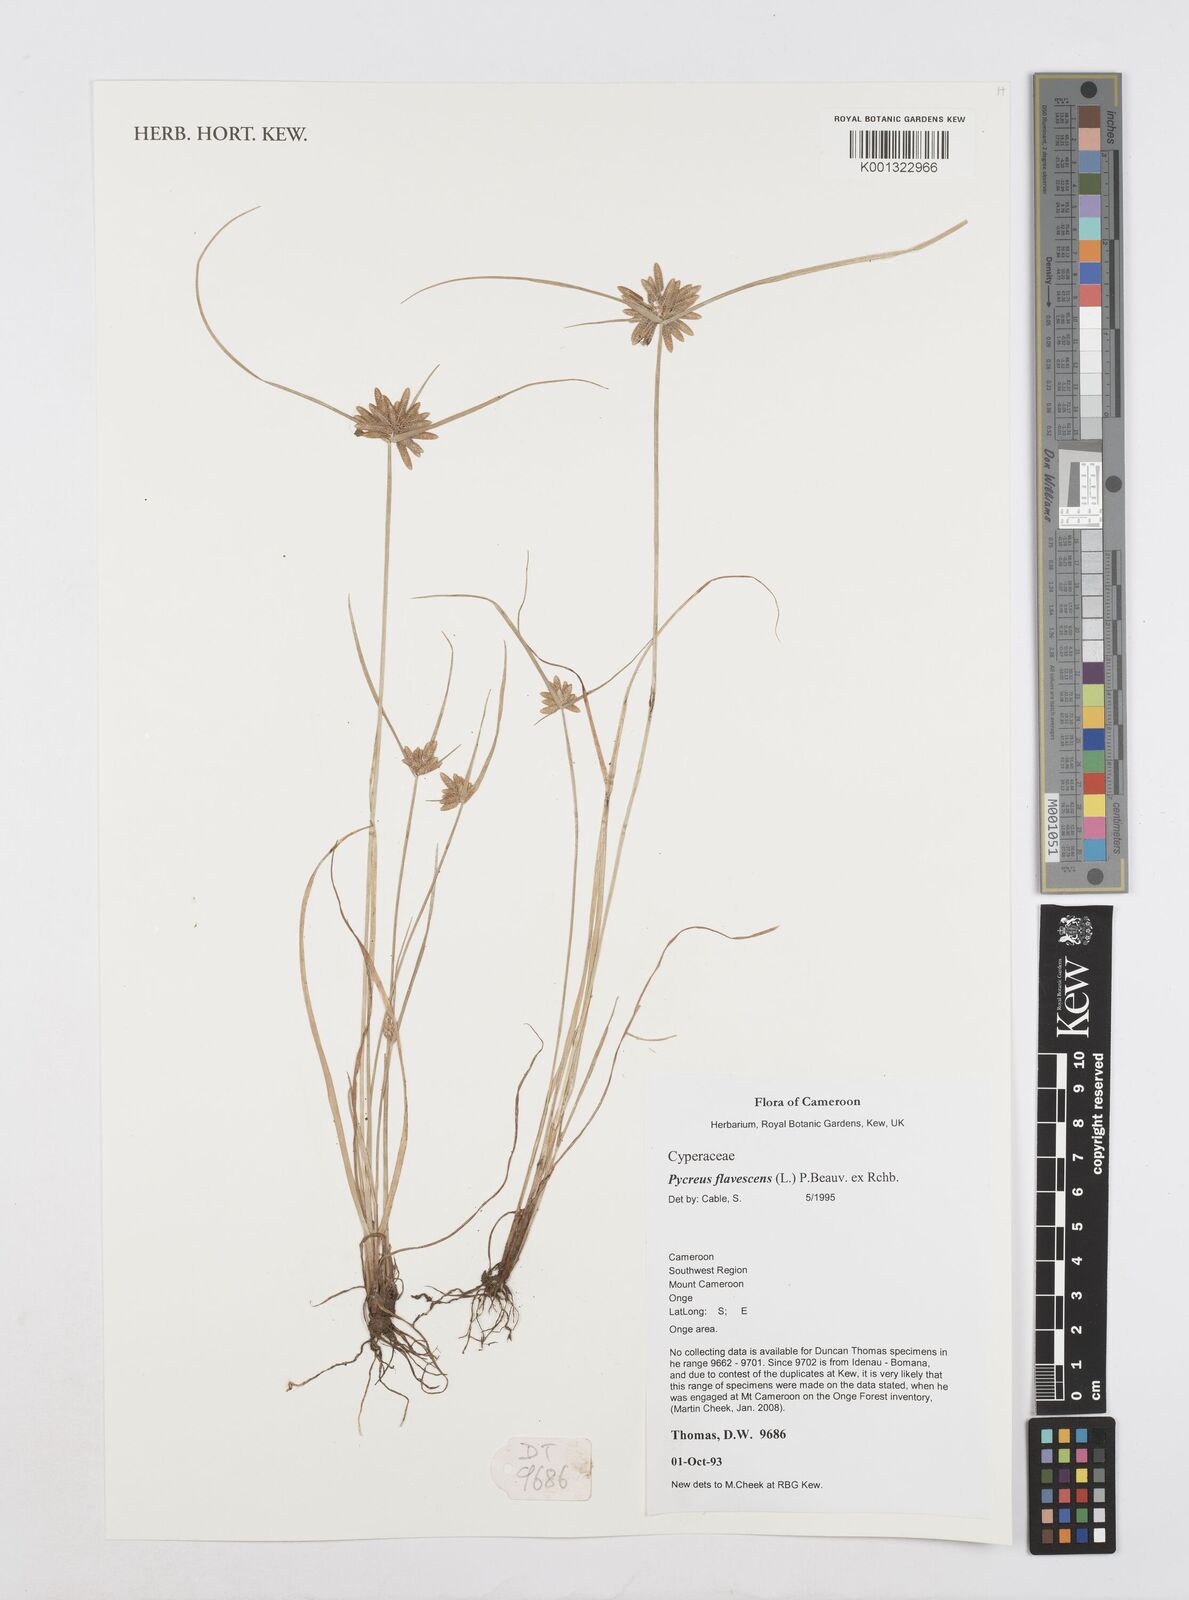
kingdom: Plantae
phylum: Tracheophyta
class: Liliopsida
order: Poales
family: Cyperaceae
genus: Cyperus
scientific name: Cyperus flavescens
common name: Yellow galingale
